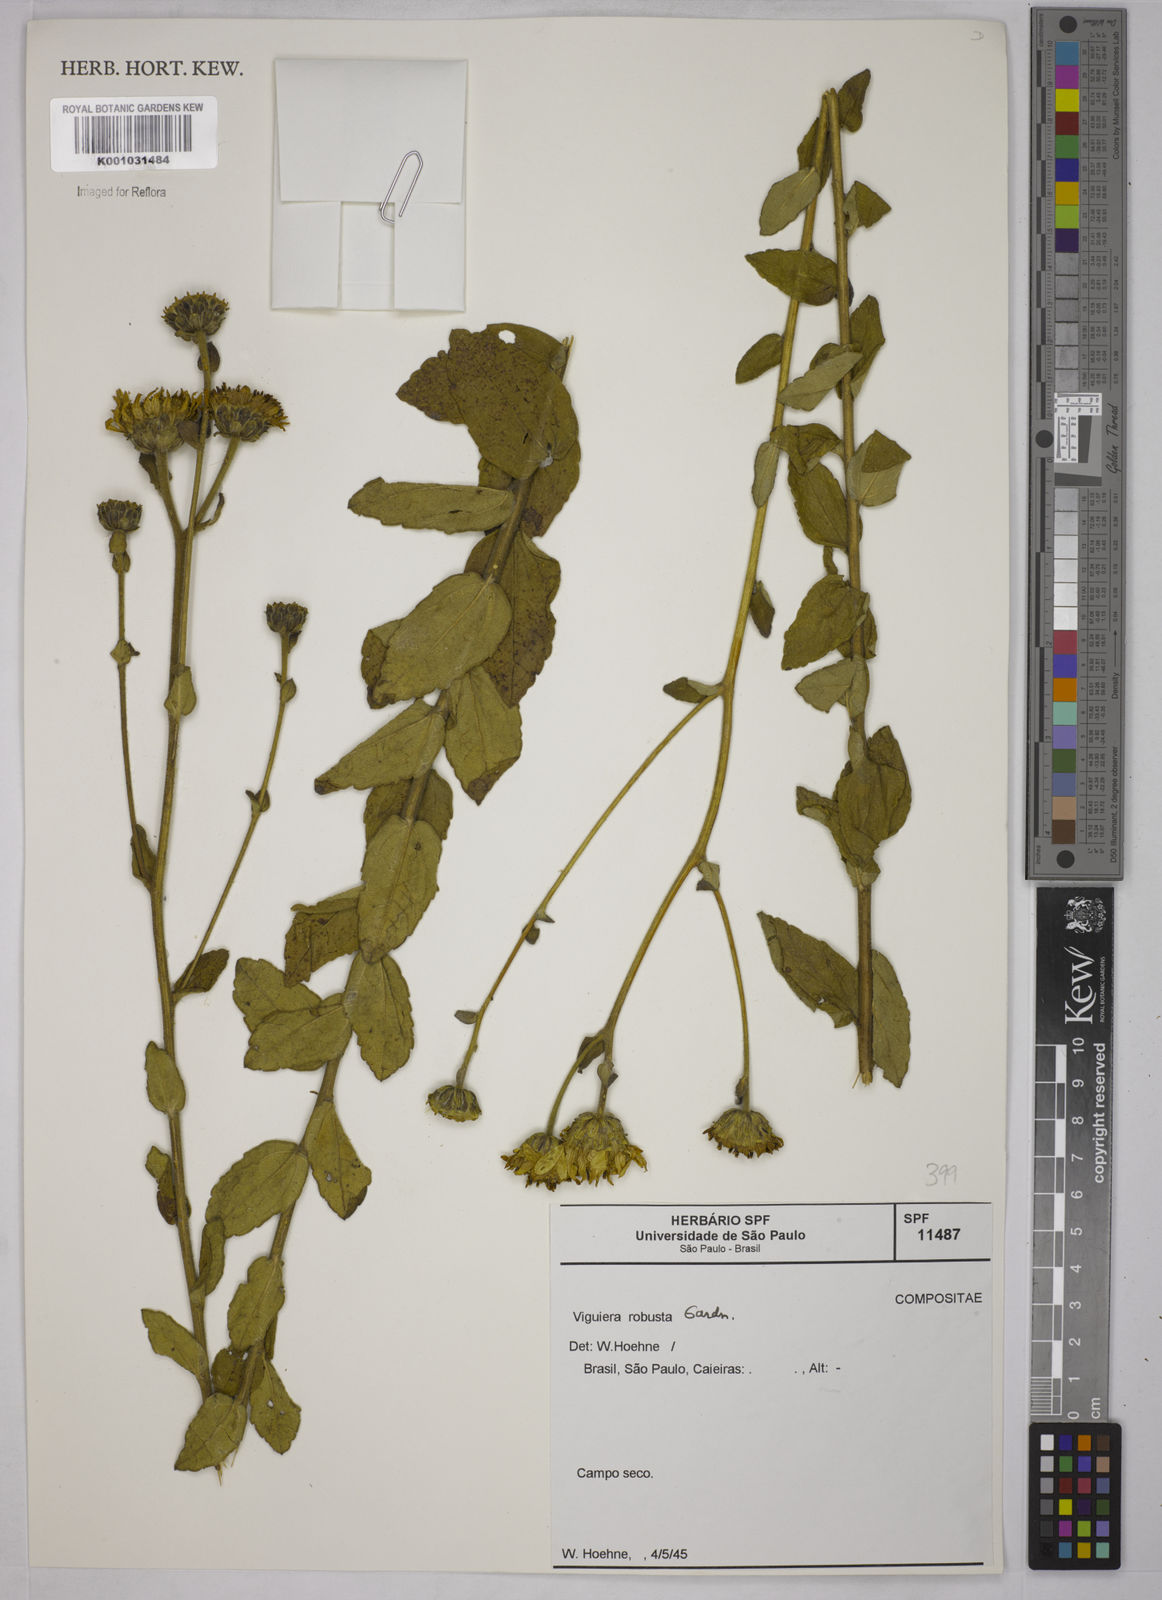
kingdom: Plantae
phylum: Tracheophyta
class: Magnoliopsida
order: Asterales
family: Asteraceae
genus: Aldama
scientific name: Aldama robusta
